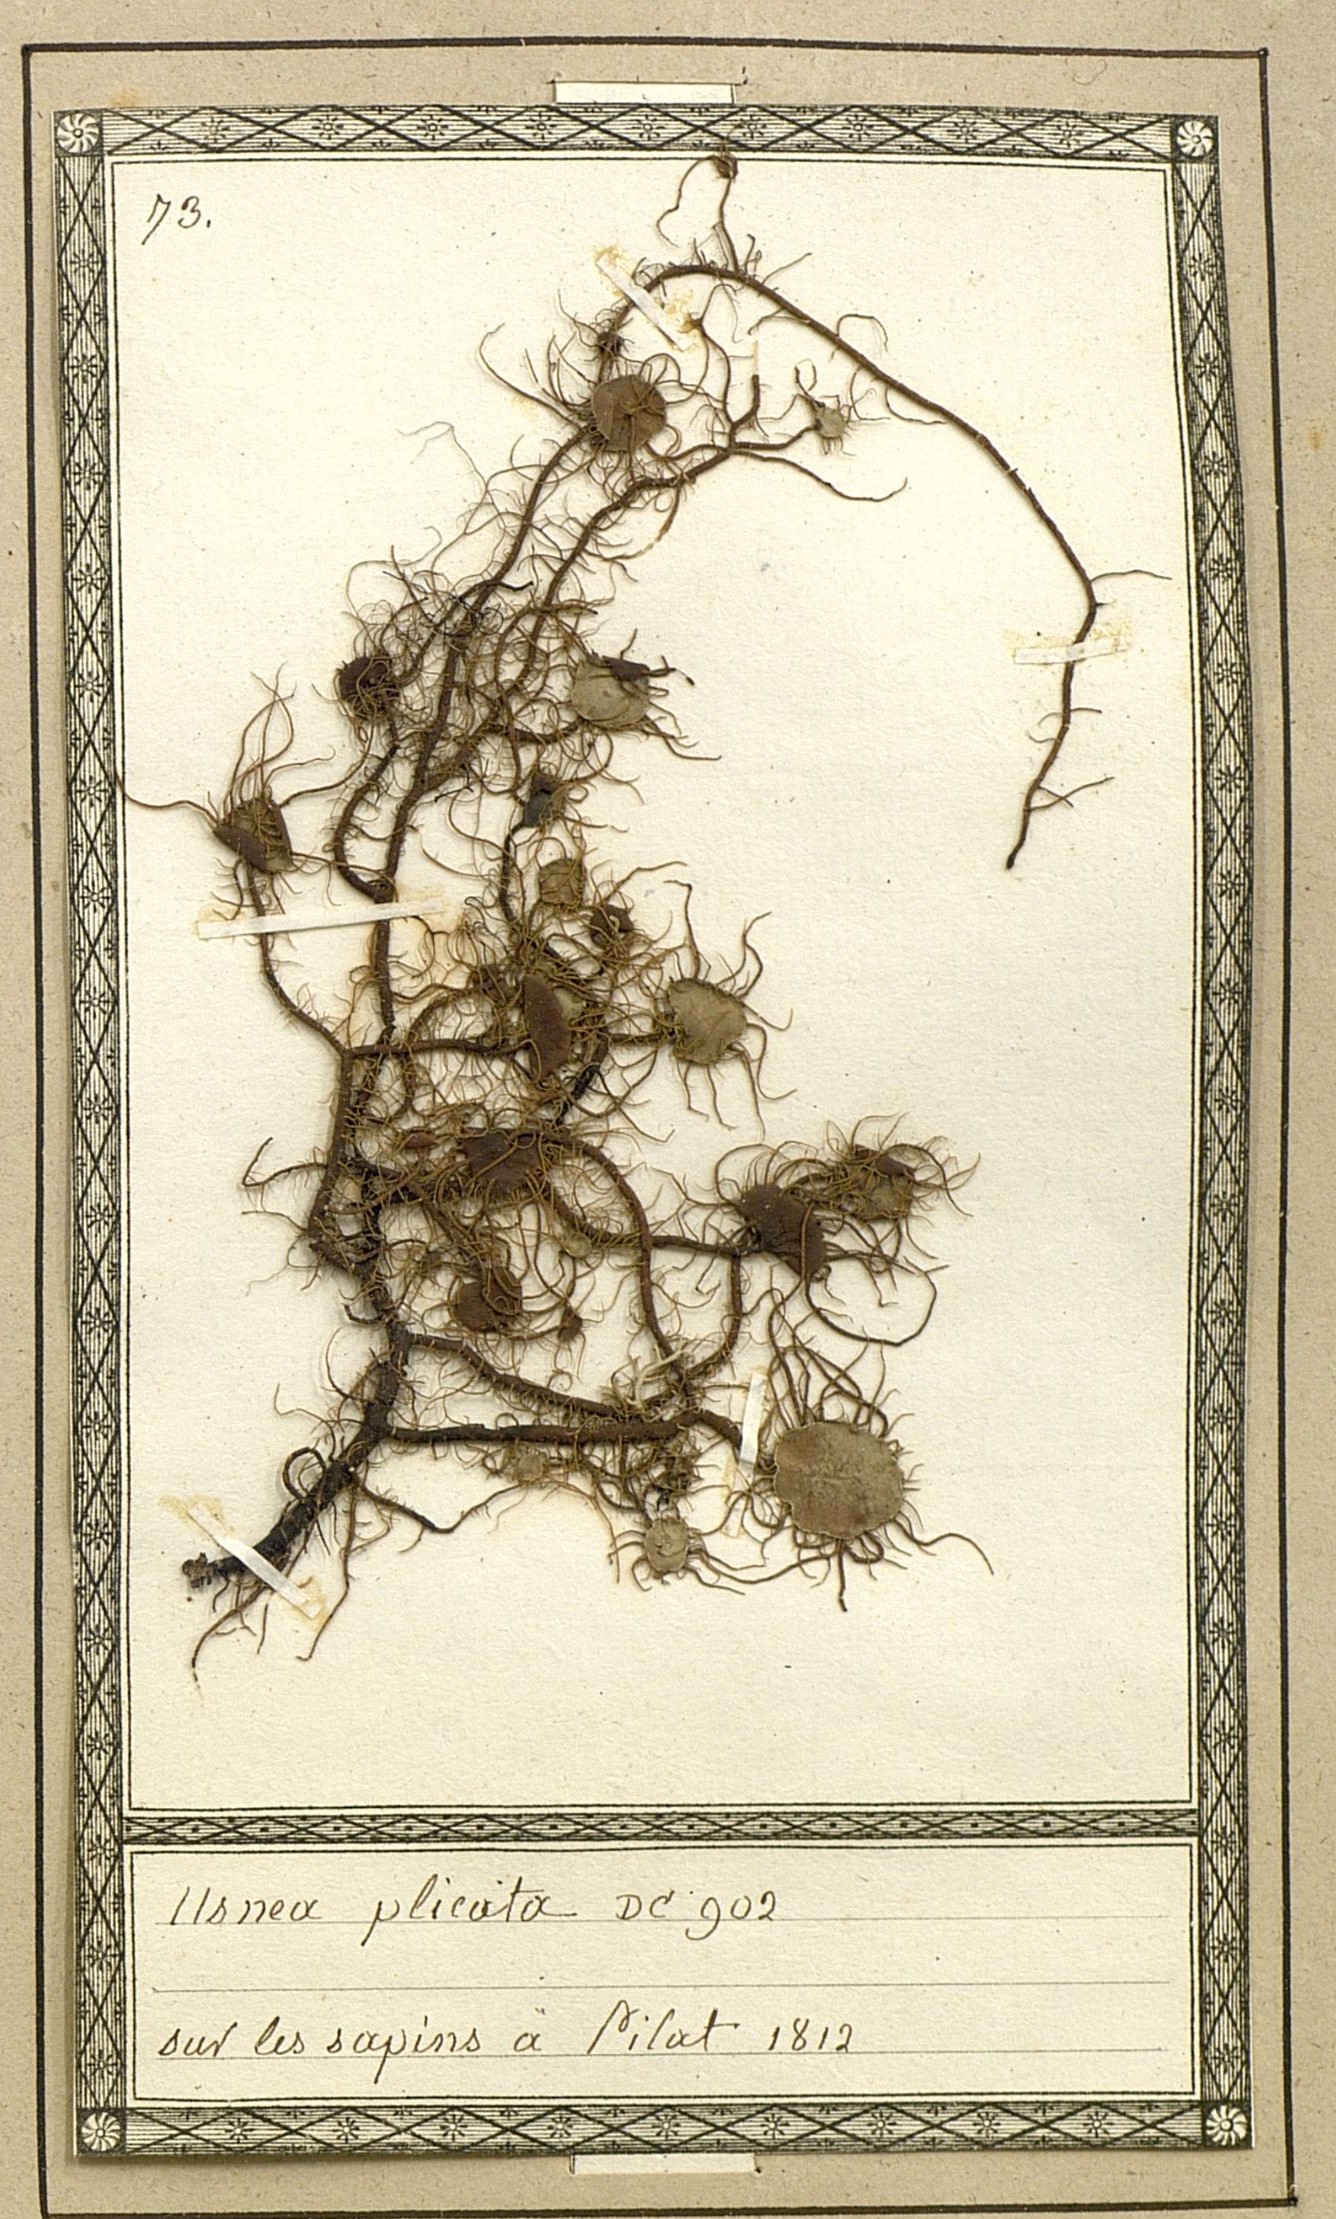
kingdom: Fungi
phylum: Ascomycota
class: Lecanoromycetes
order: Lecanorales
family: Parmeliaceae
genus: Usnea
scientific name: Usnea plicata
